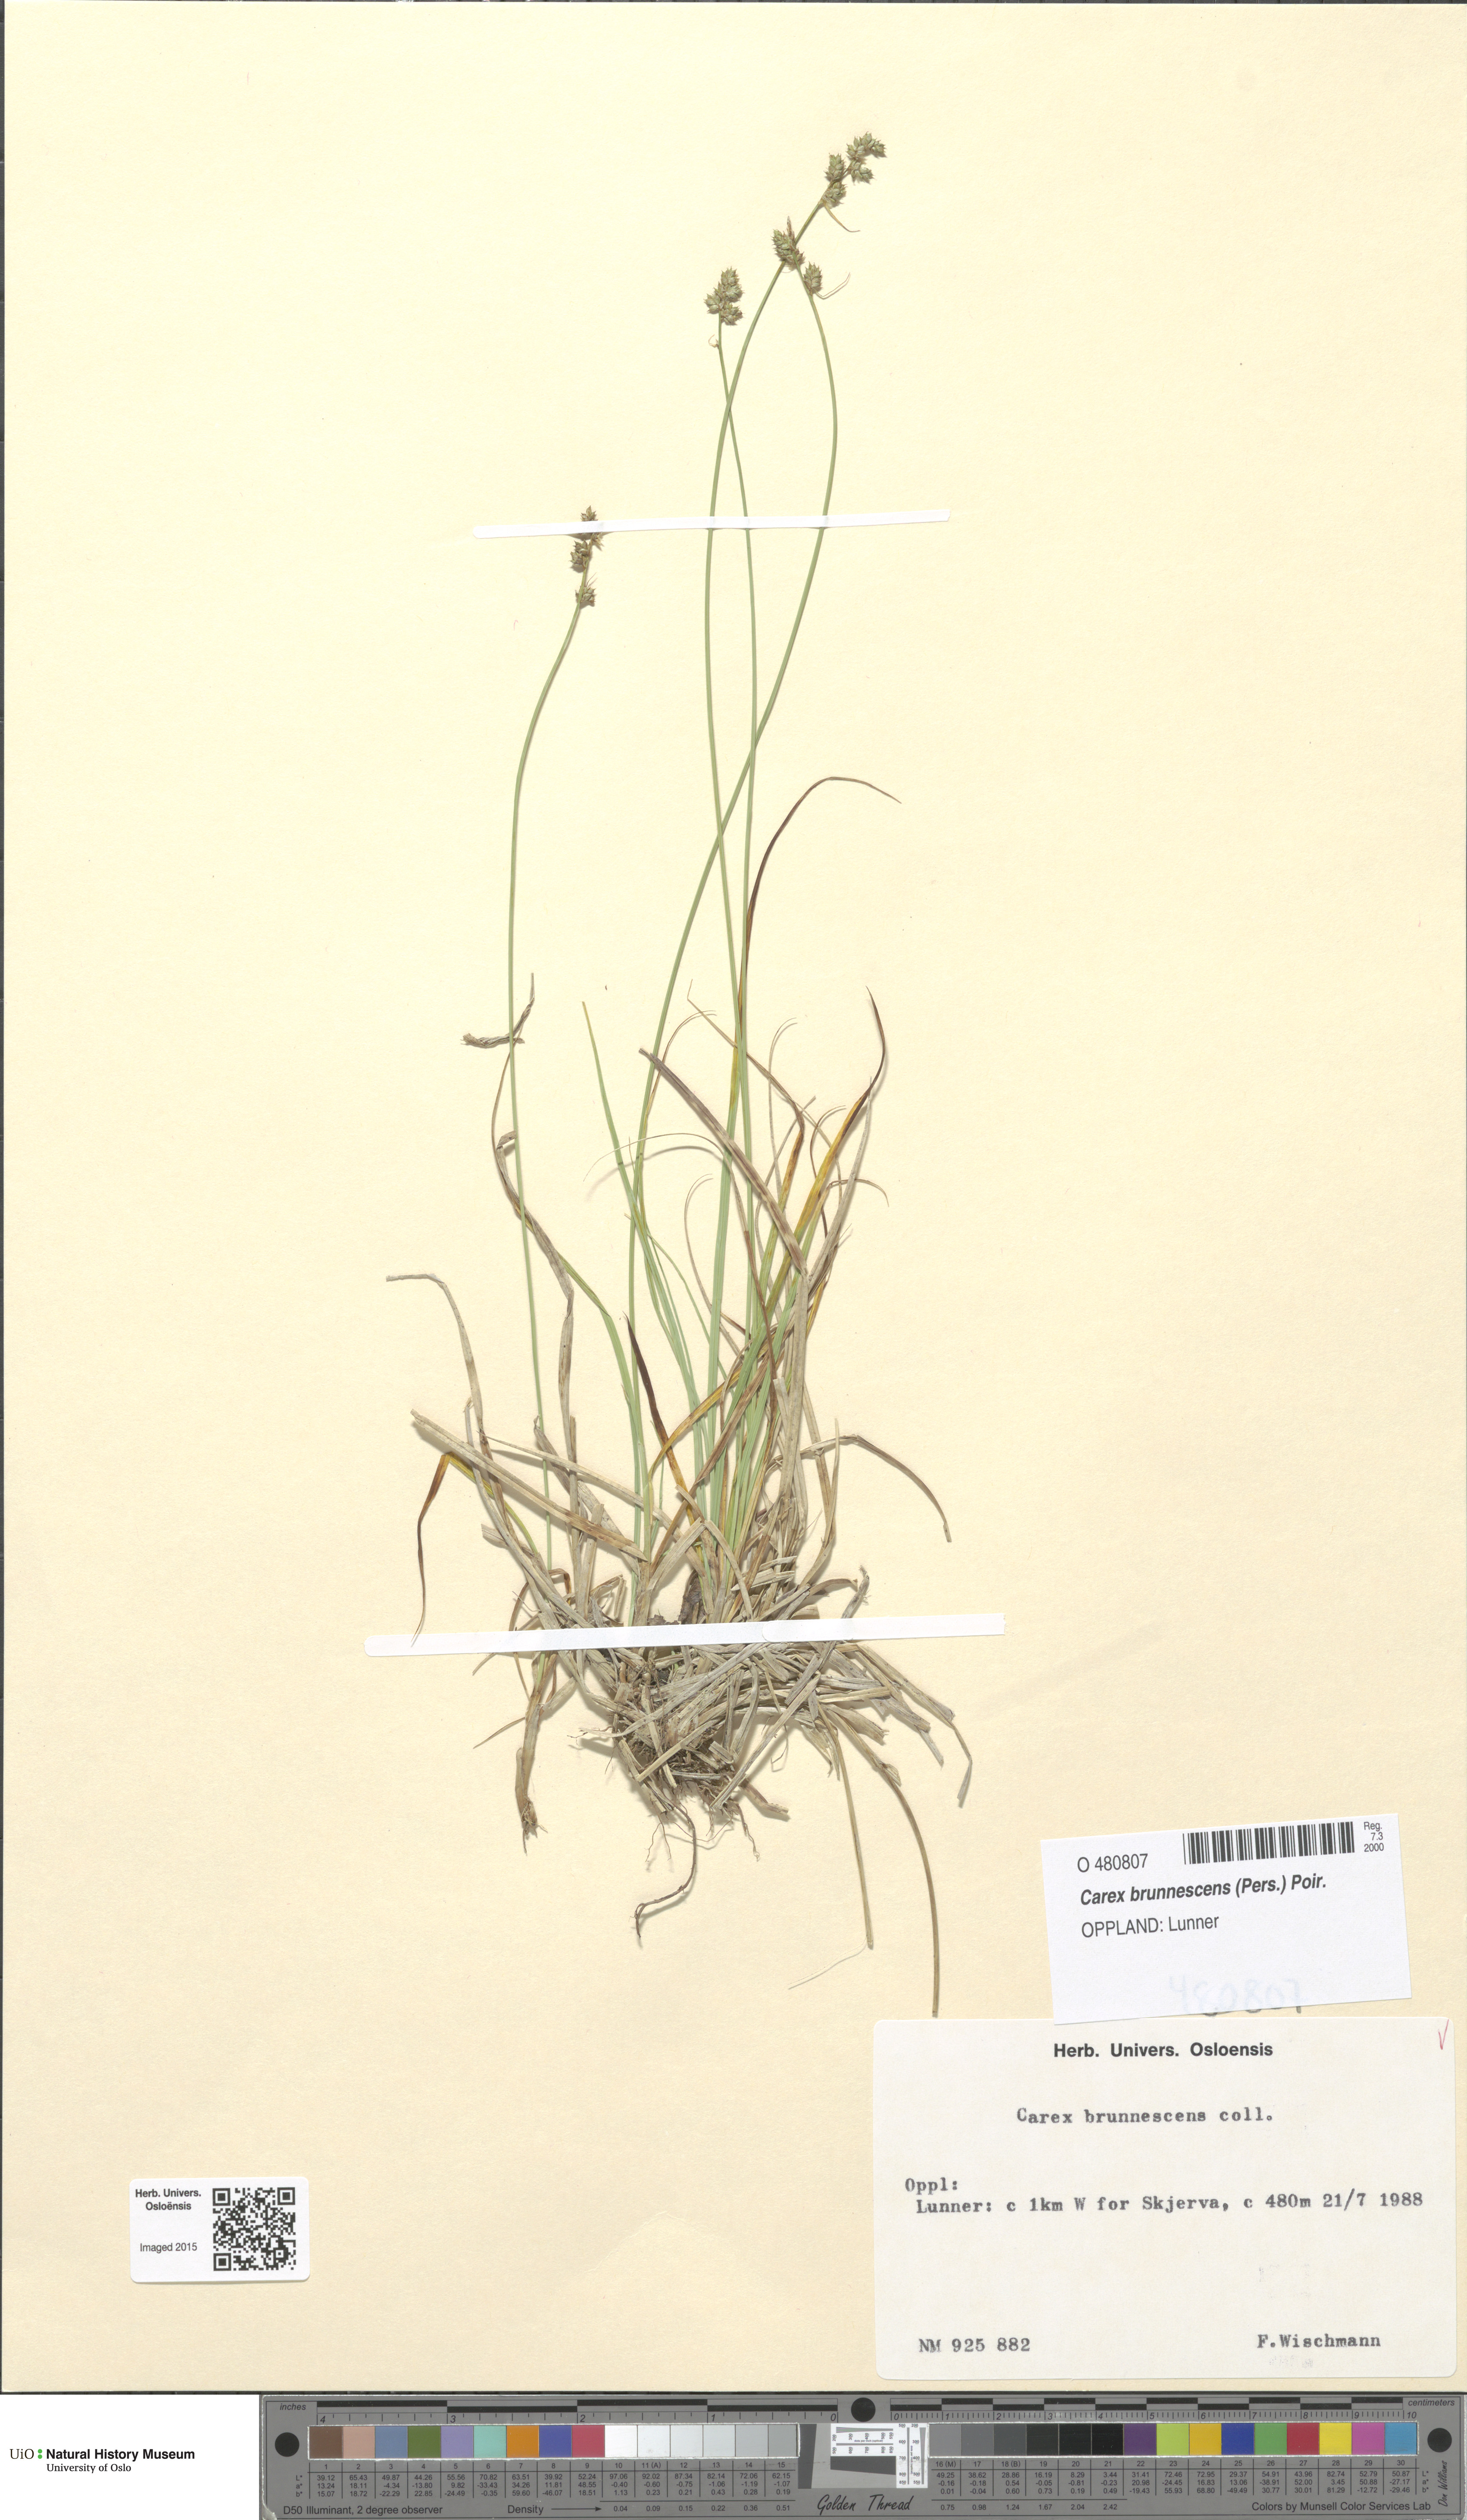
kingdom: Plantae
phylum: Tracheophyta
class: Liliopsida
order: Poales
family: Cyperaceae
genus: Carex
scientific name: Carex brunnescens
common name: Brown sedge
